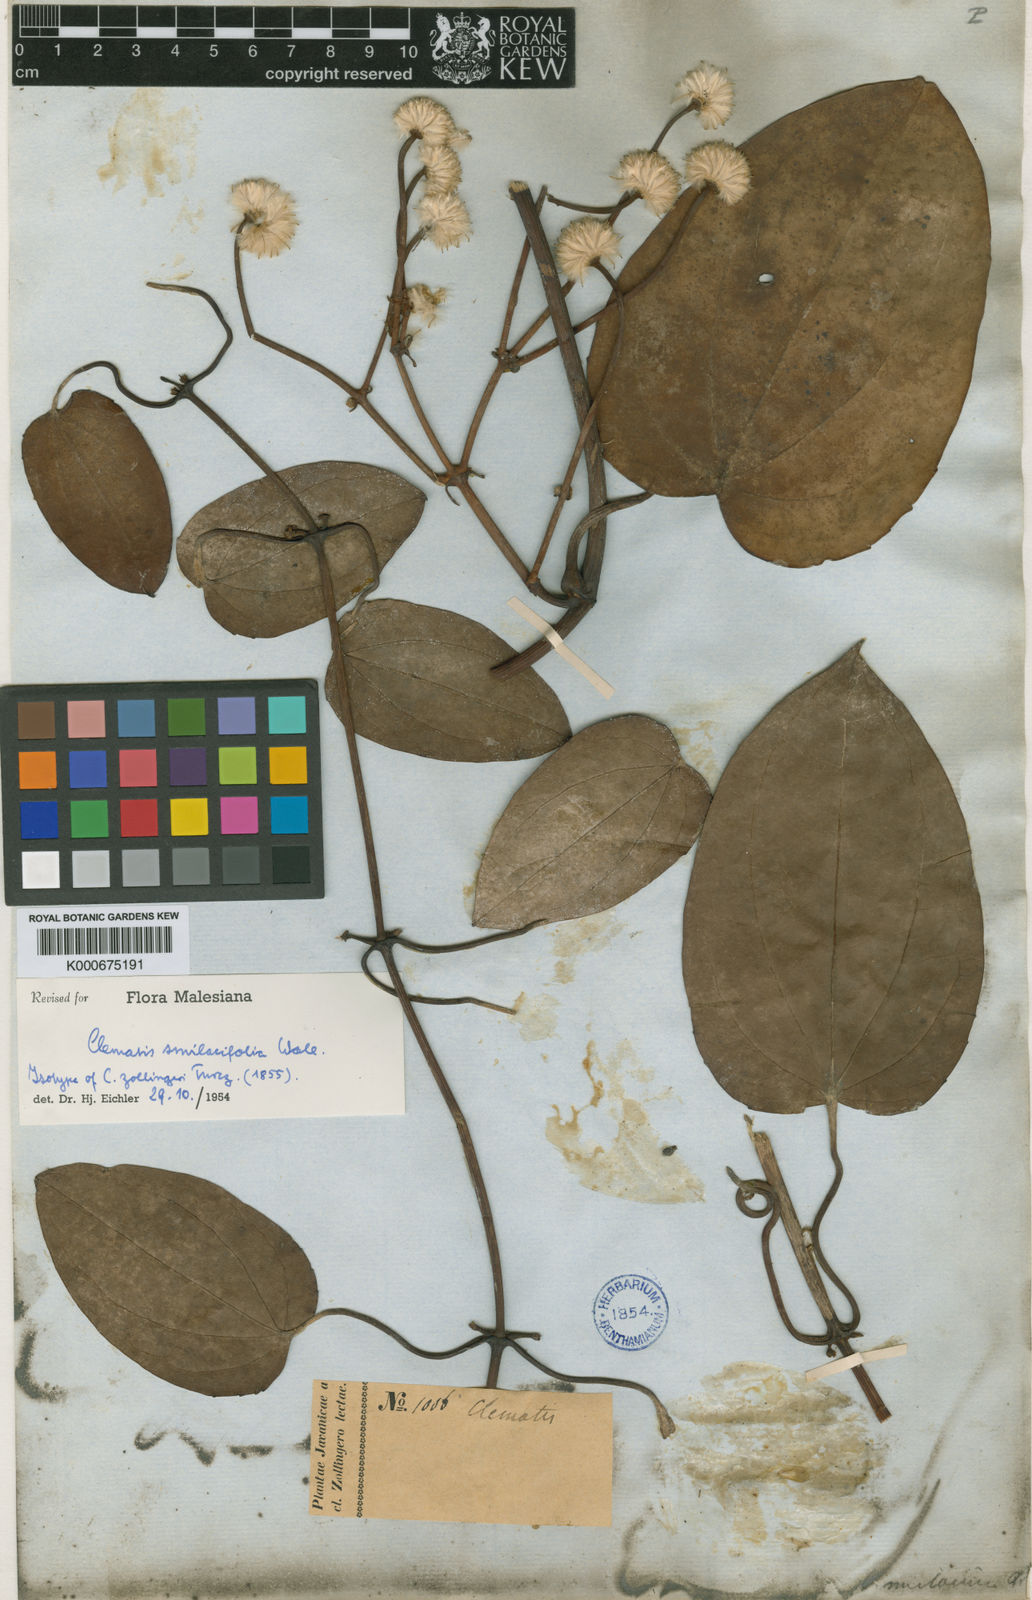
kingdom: Plantae
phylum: Tracheophyta
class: Magnoliopsida
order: Ranunculales
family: Ranunculaceae
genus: Clematis
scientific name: Clematis smilacifolia
